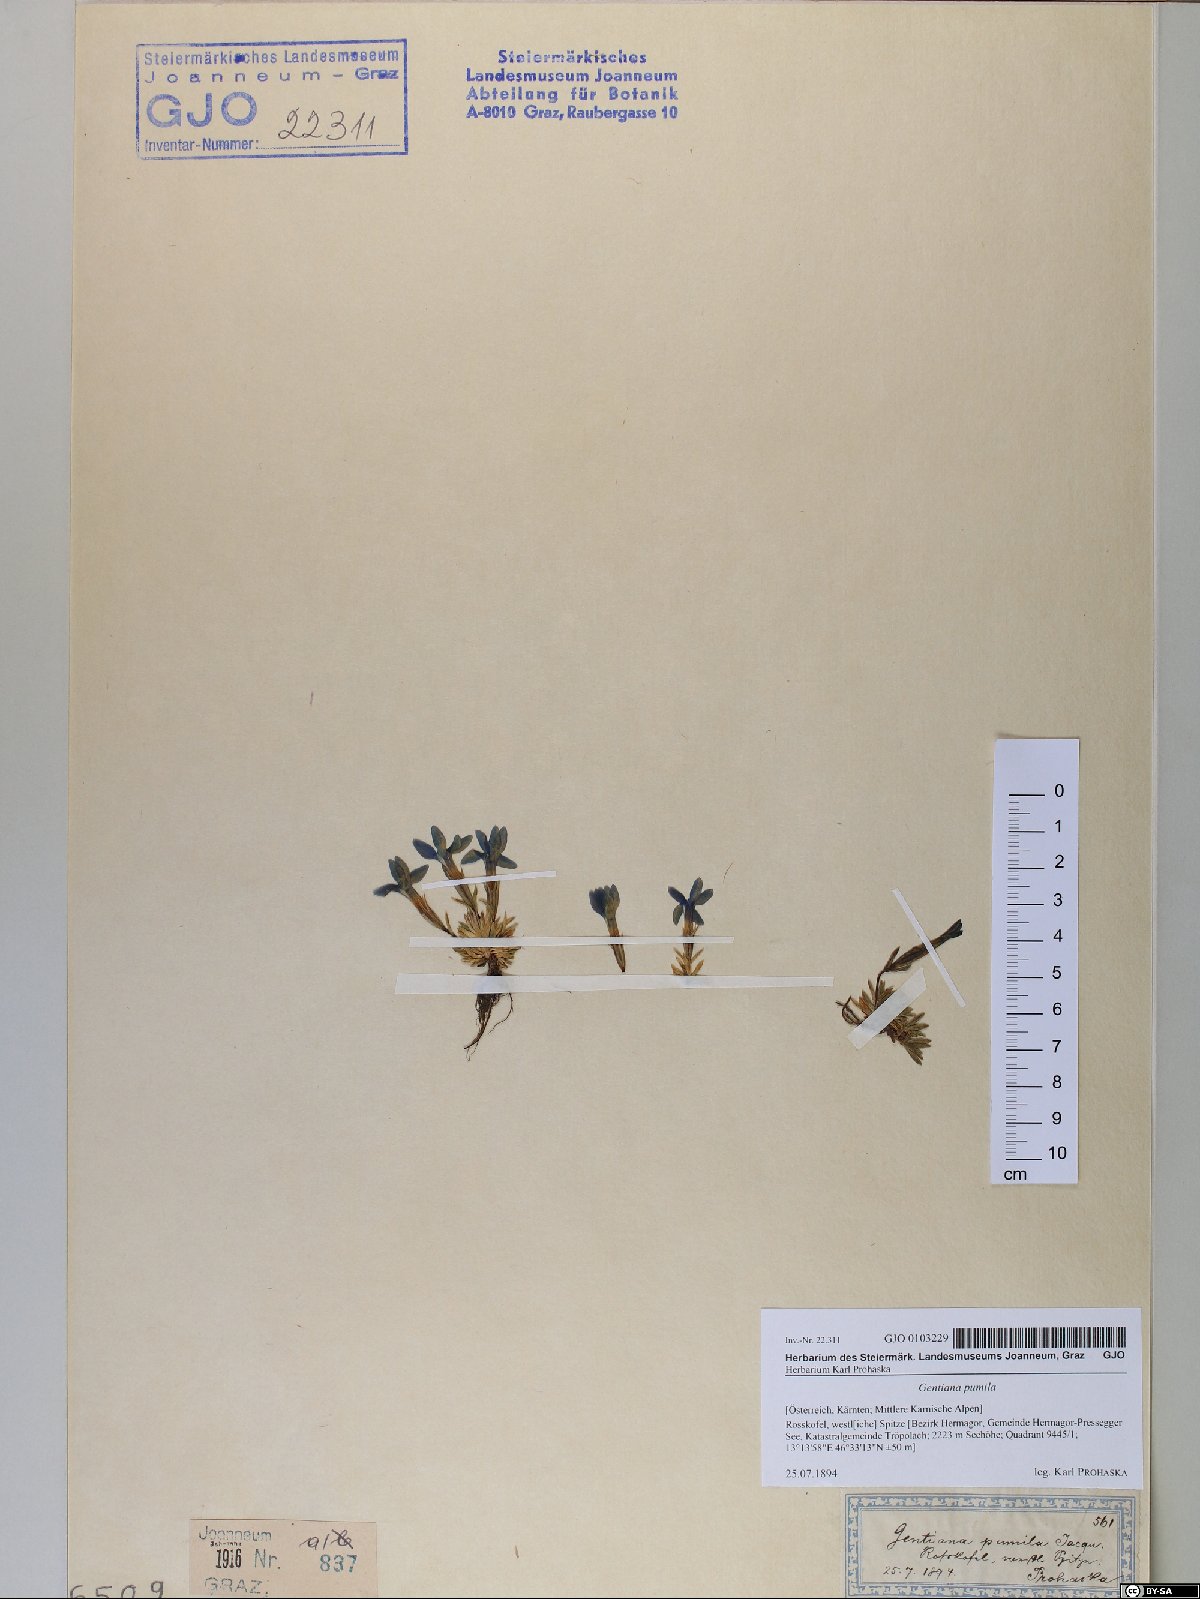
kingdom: Plantae
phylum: Tracheophyta
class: Magnoliopsida
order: Gentianales
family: Gentianaceae
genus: Gentiana
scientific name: Gentiana pumila
